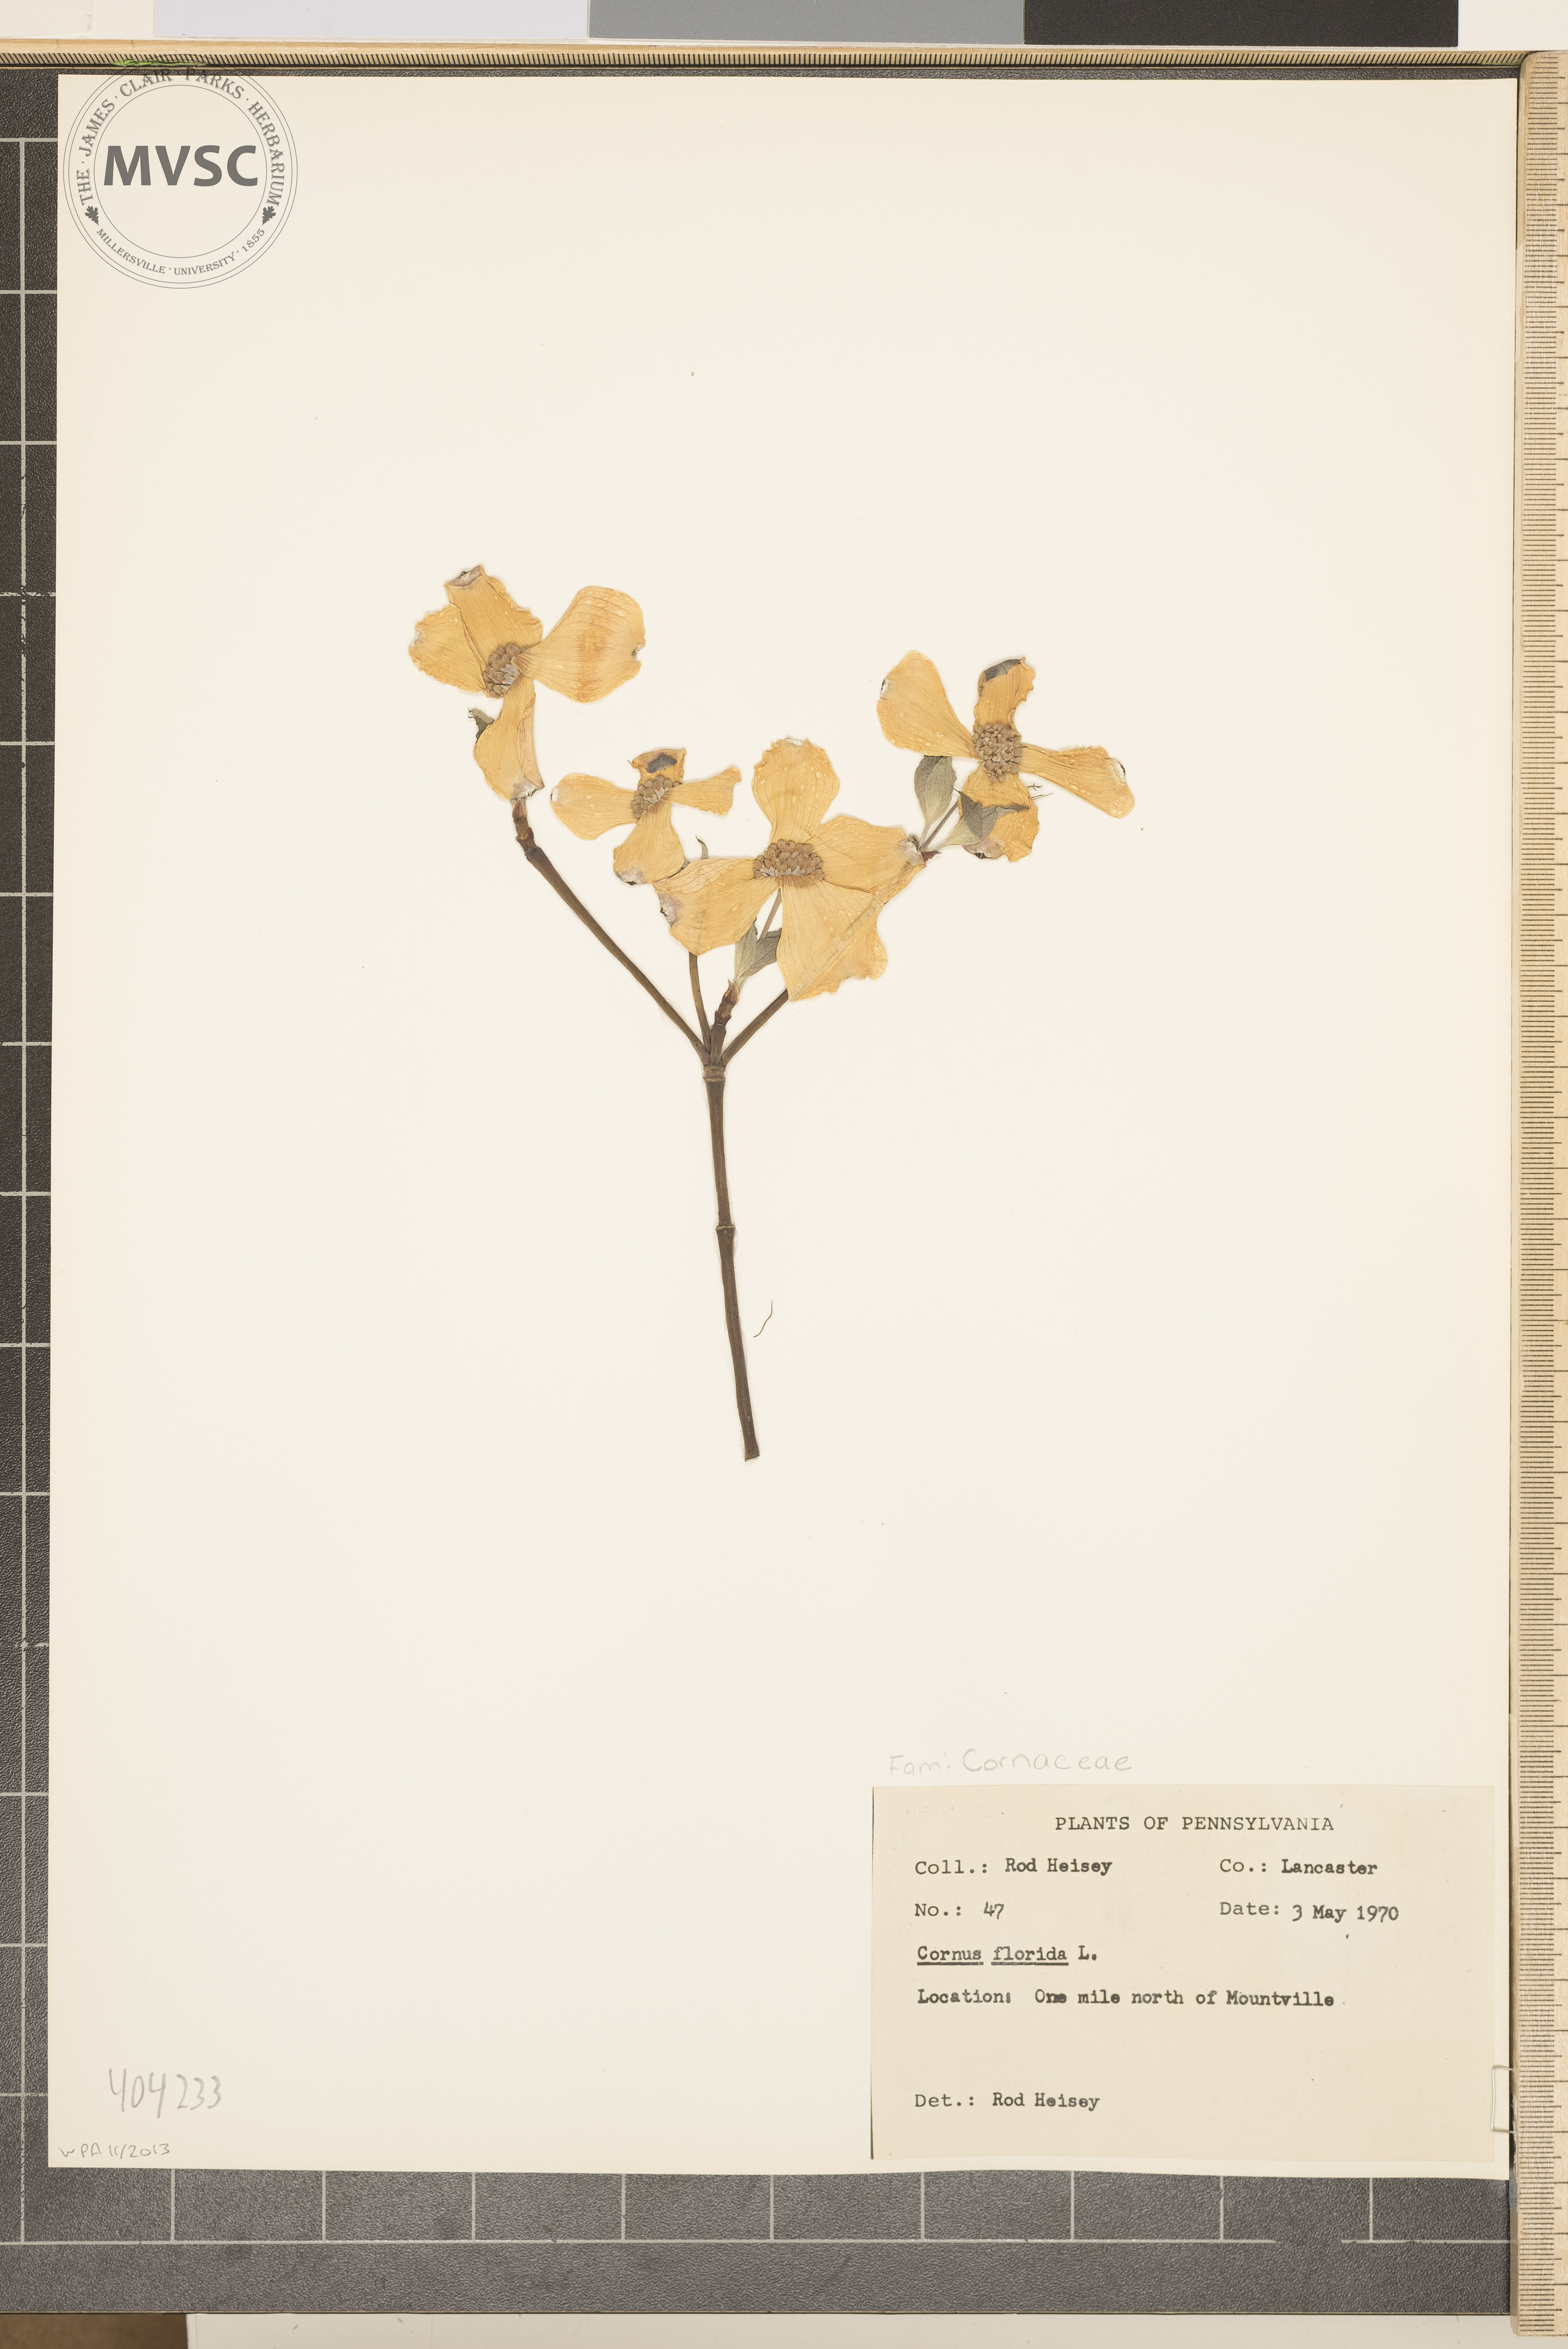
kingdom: Plantae
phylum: Tracheophyta
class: Magnoliopsida
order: Cornales
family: Cornaceae
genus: Cornus
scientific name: Cornus florida
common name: Flowering dogwood
